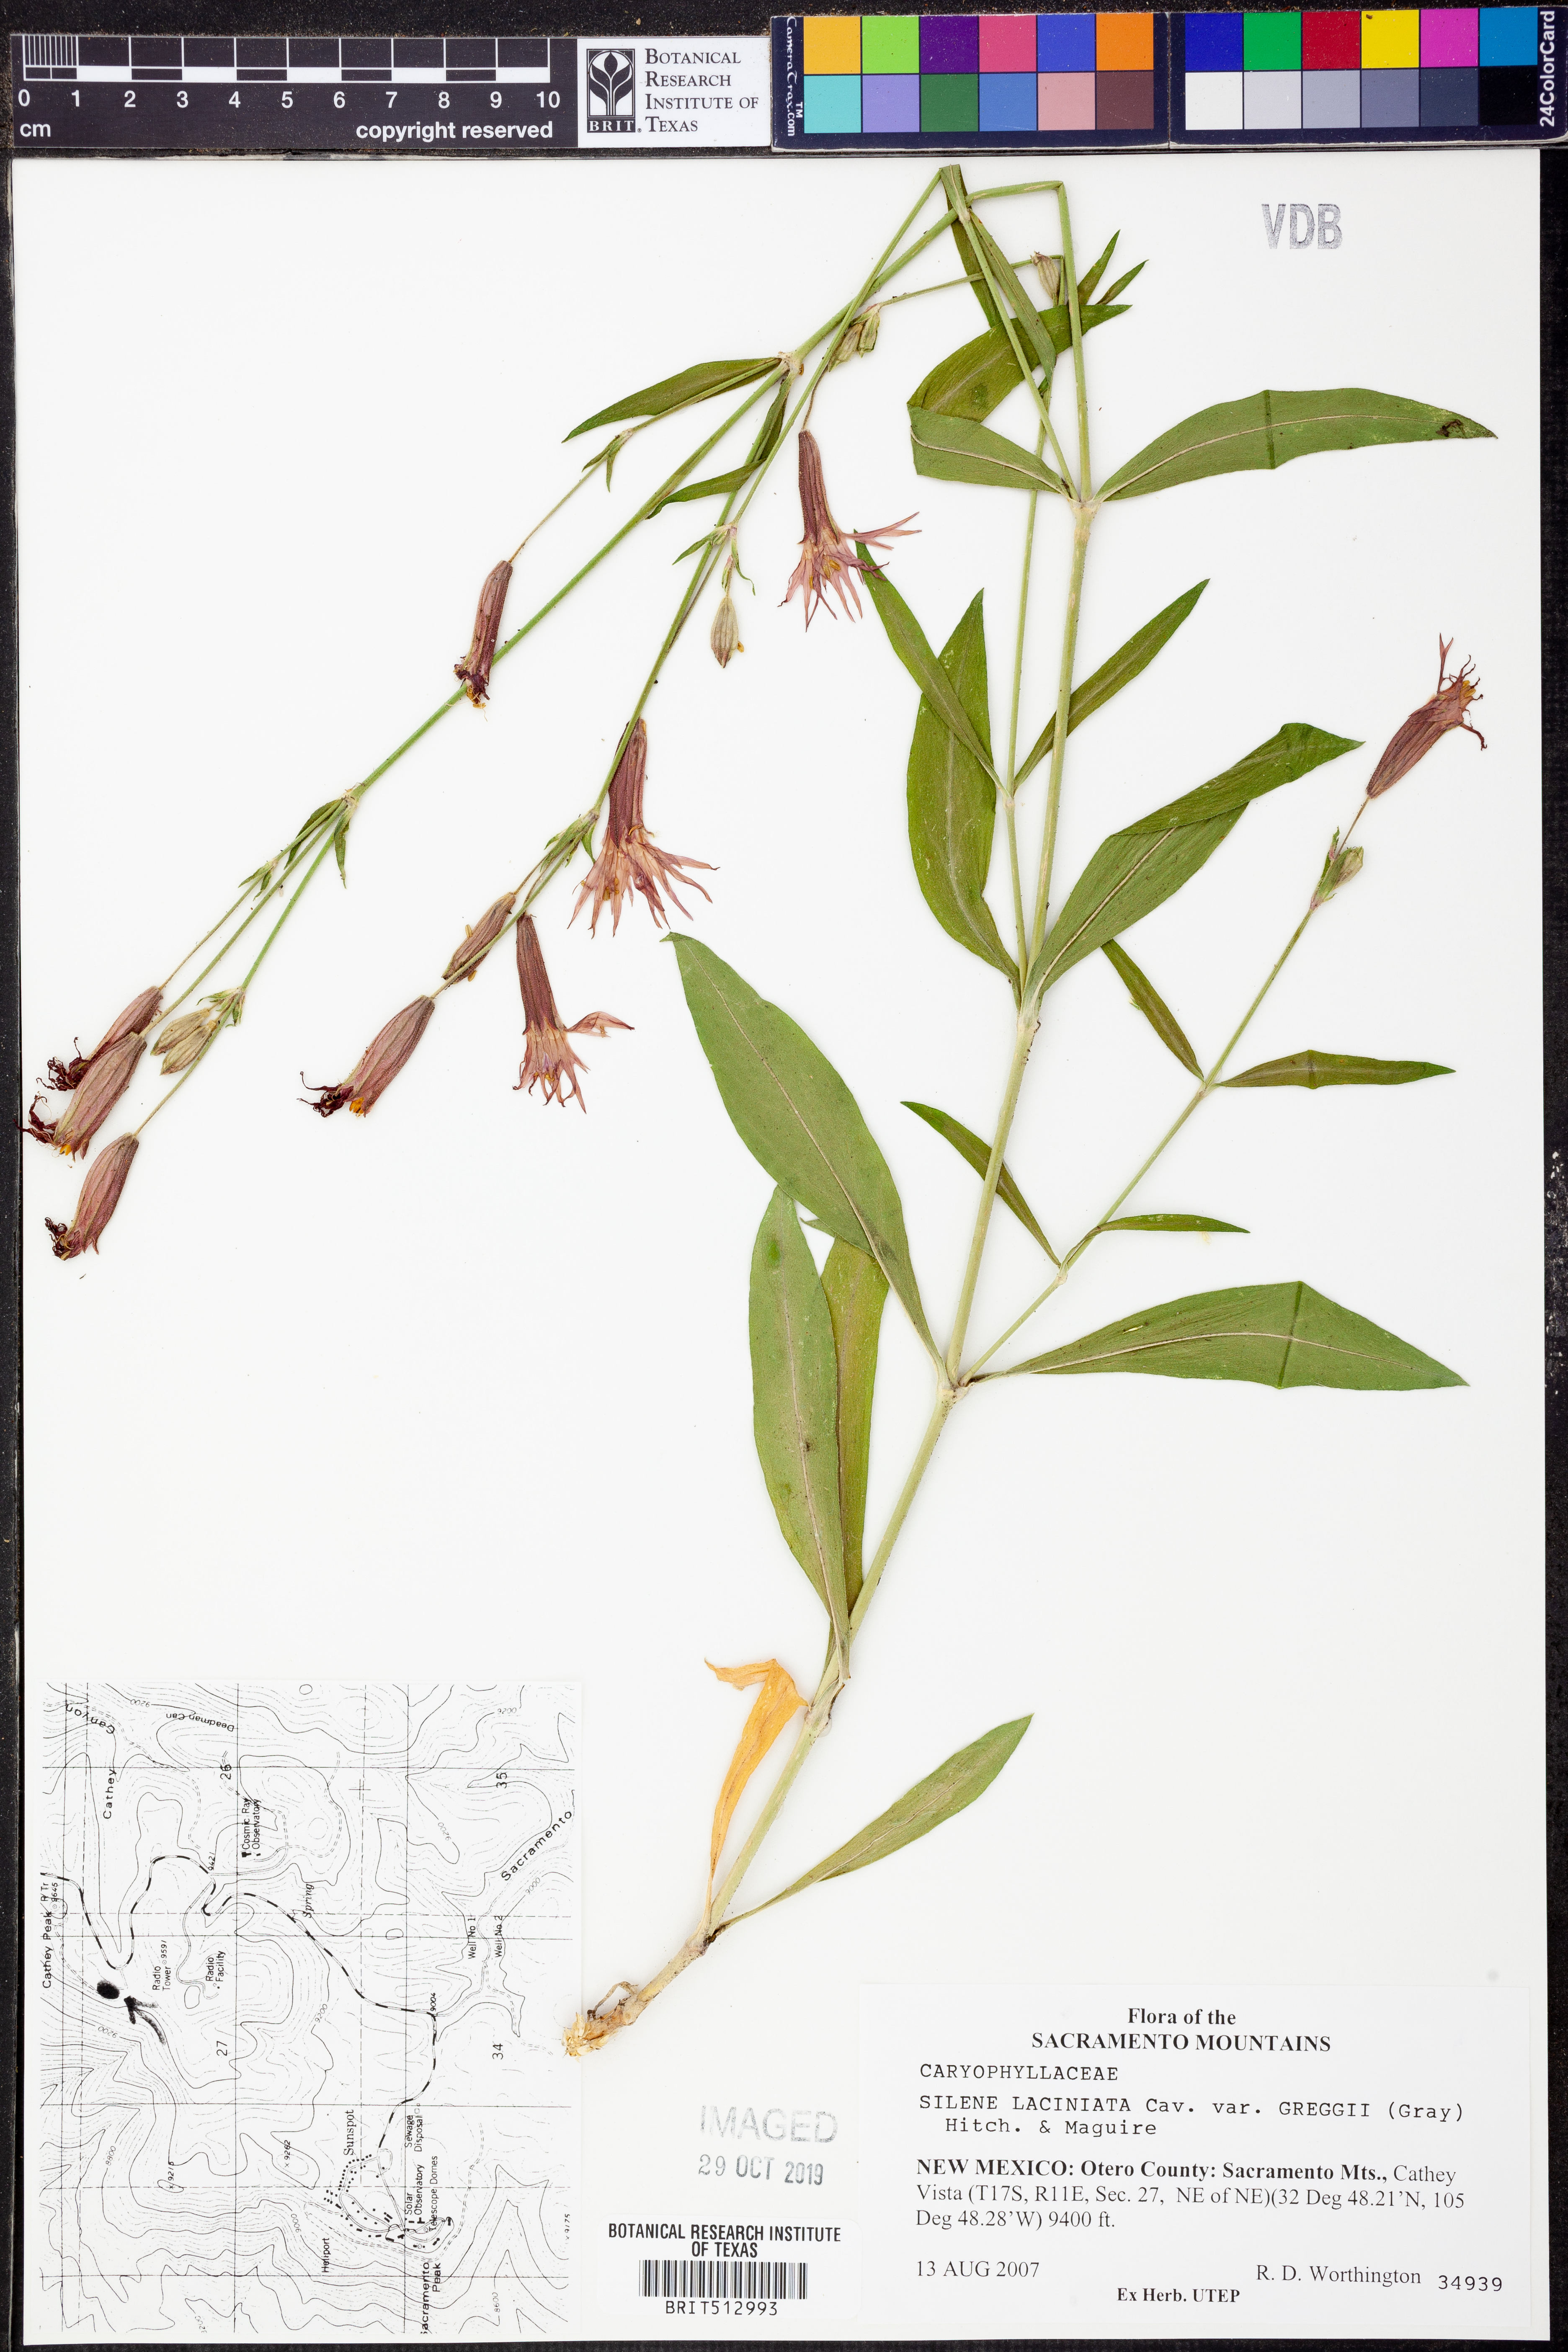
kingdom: Plantae
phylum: Tracheophyta
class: Magnoliopsida
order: Caryophyllales
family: Caryophyllaceae
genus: Silene
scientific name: Silene laciniata
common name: Indian-pink
